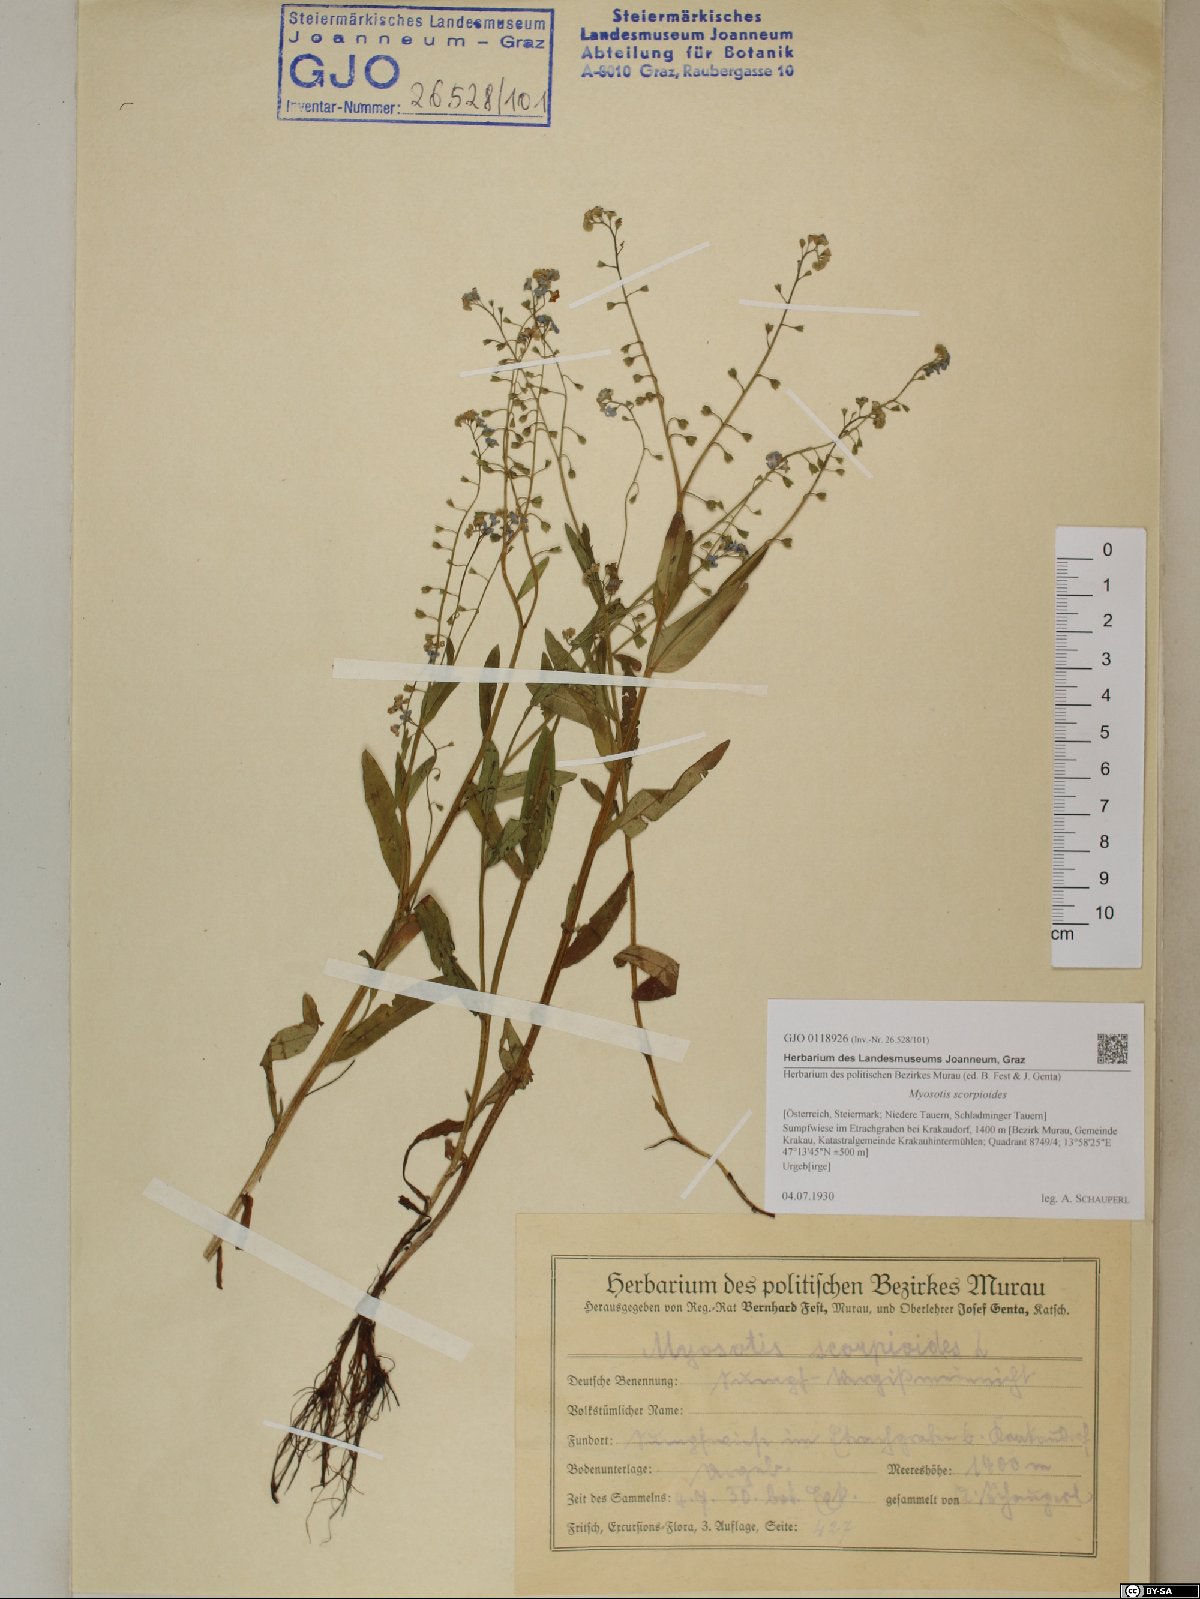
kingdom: Plantae
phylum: Tracheophyta
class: Magnoliopsida
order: Boraginales
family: Boraginaceae
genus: Myosotis
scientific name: Myosotis scorpioides
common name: Water forget-me-not
